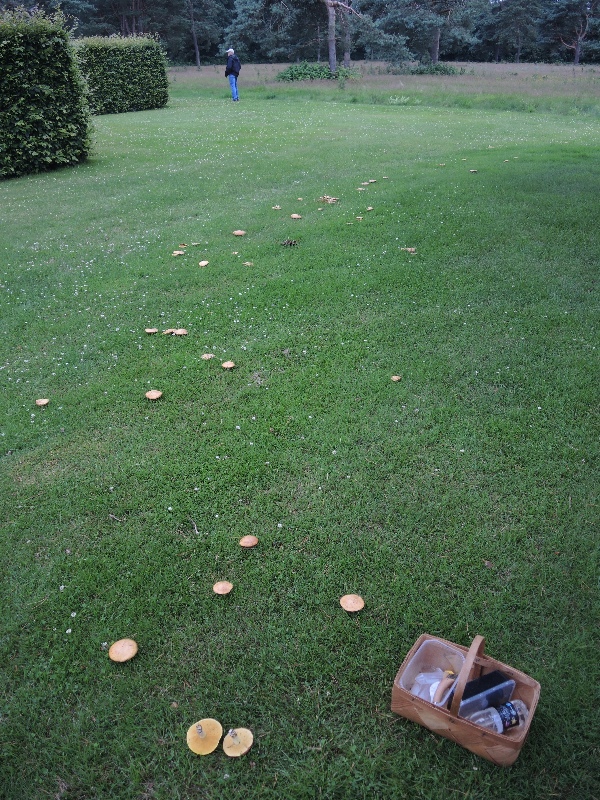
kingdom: Fungi
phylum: Basidiomycota
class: Agaricomycetes
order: Boletales
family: Suillaceae
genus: Suillus
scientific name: Suillus granulatus
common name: kornet slimrørhat
